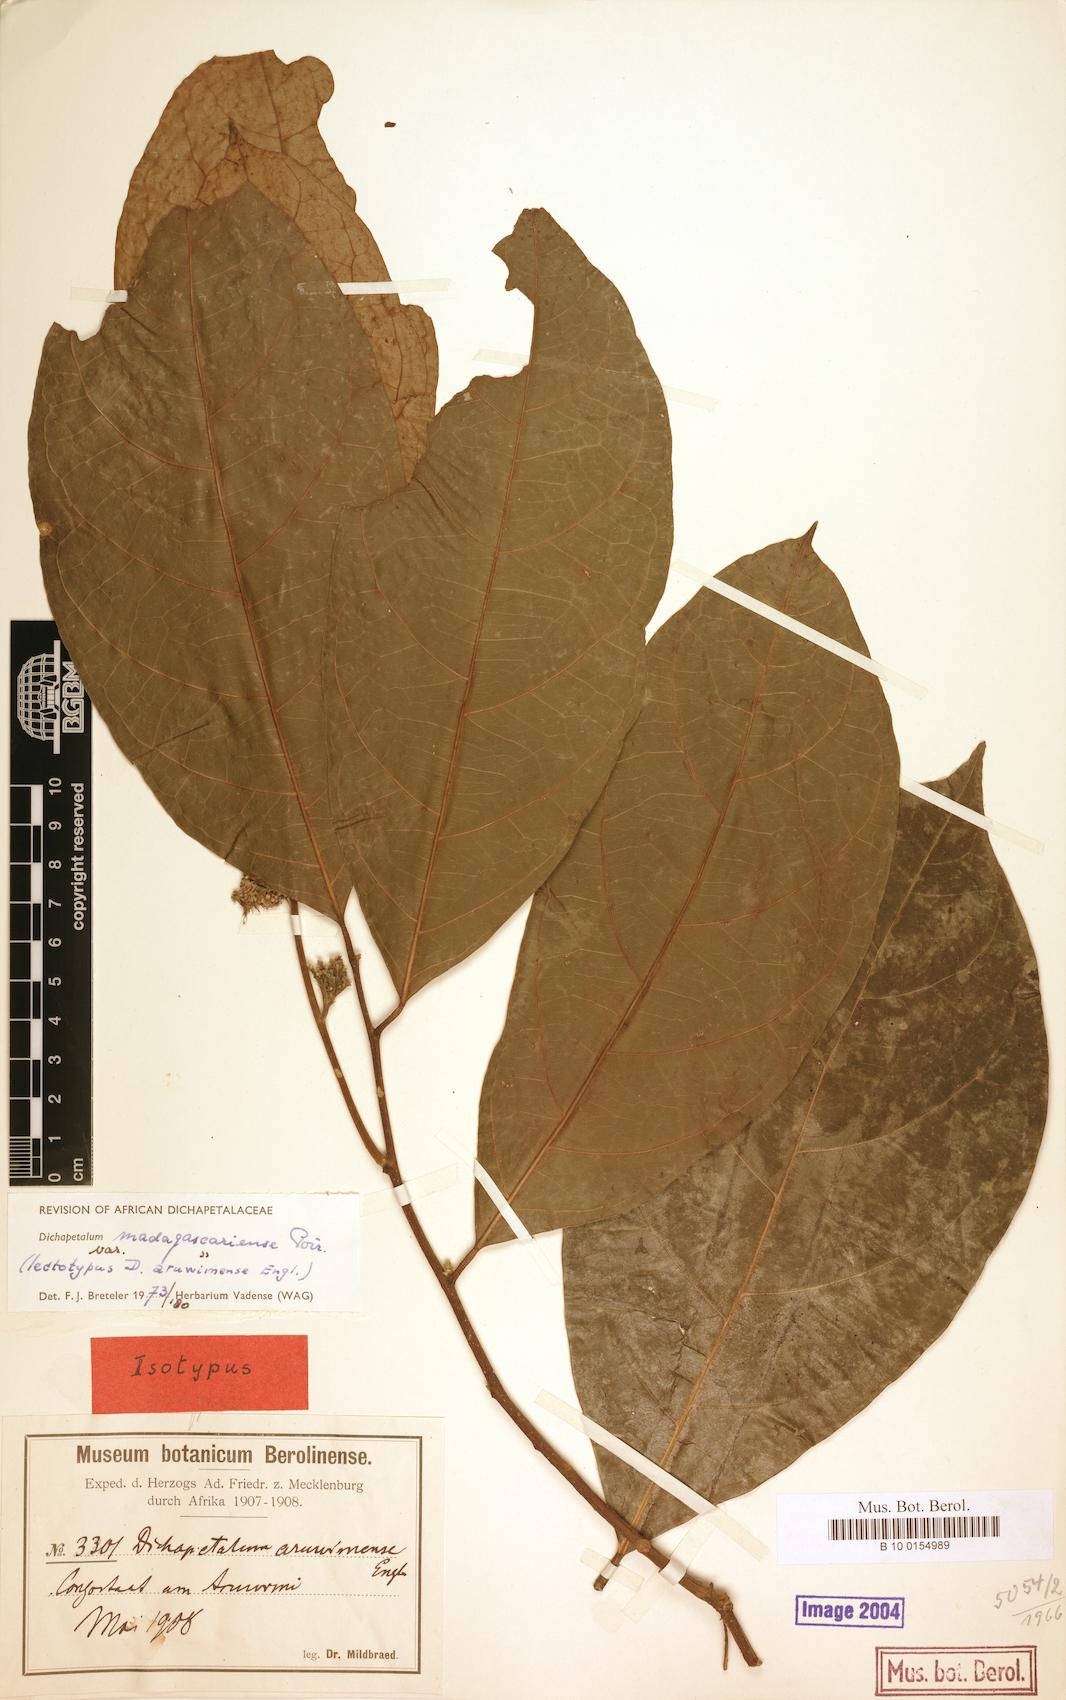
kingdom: Plantae
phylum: Tracheophyta
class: Magnoliopsida
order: Malpighiales
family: Dichapetalaceae
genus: Dichapetalum
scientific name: Dichapetalum madagascariense
